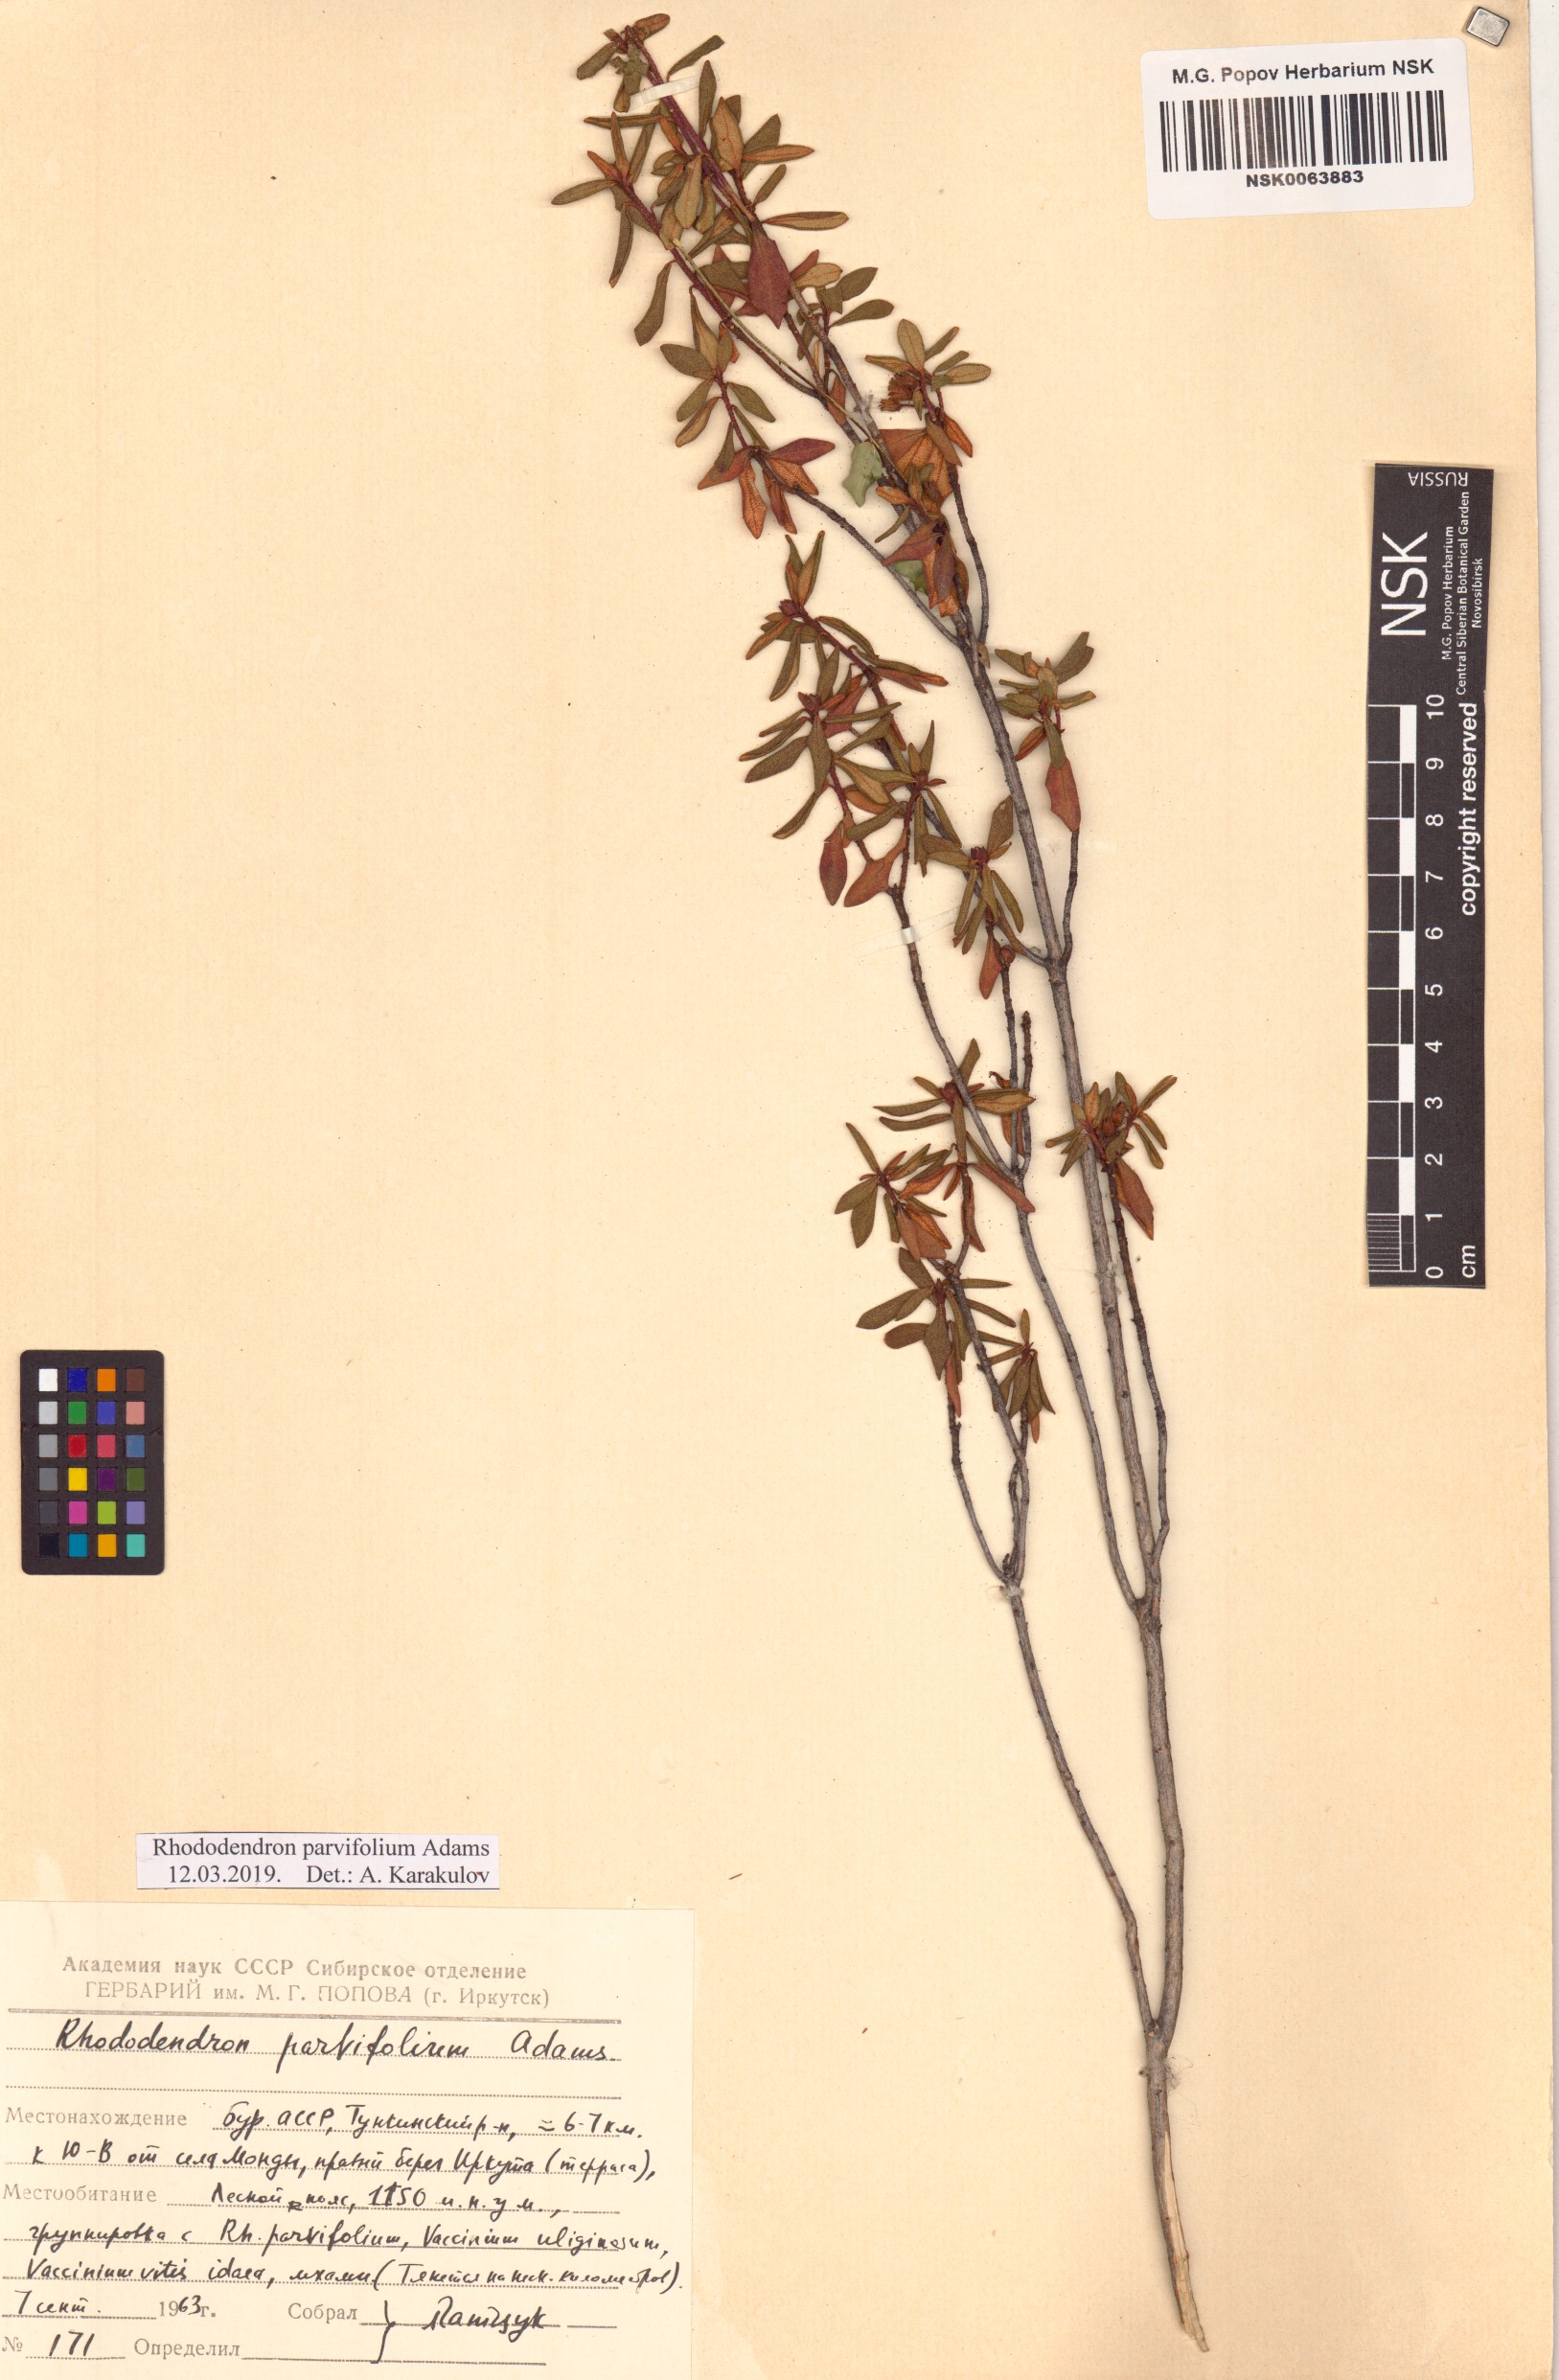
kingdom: Plantae
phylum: Tracheophyta
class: Magnoliopsida
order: Ericales
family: Ericaceae
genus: Rhododendron
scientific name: Rhododendron parvifolium
